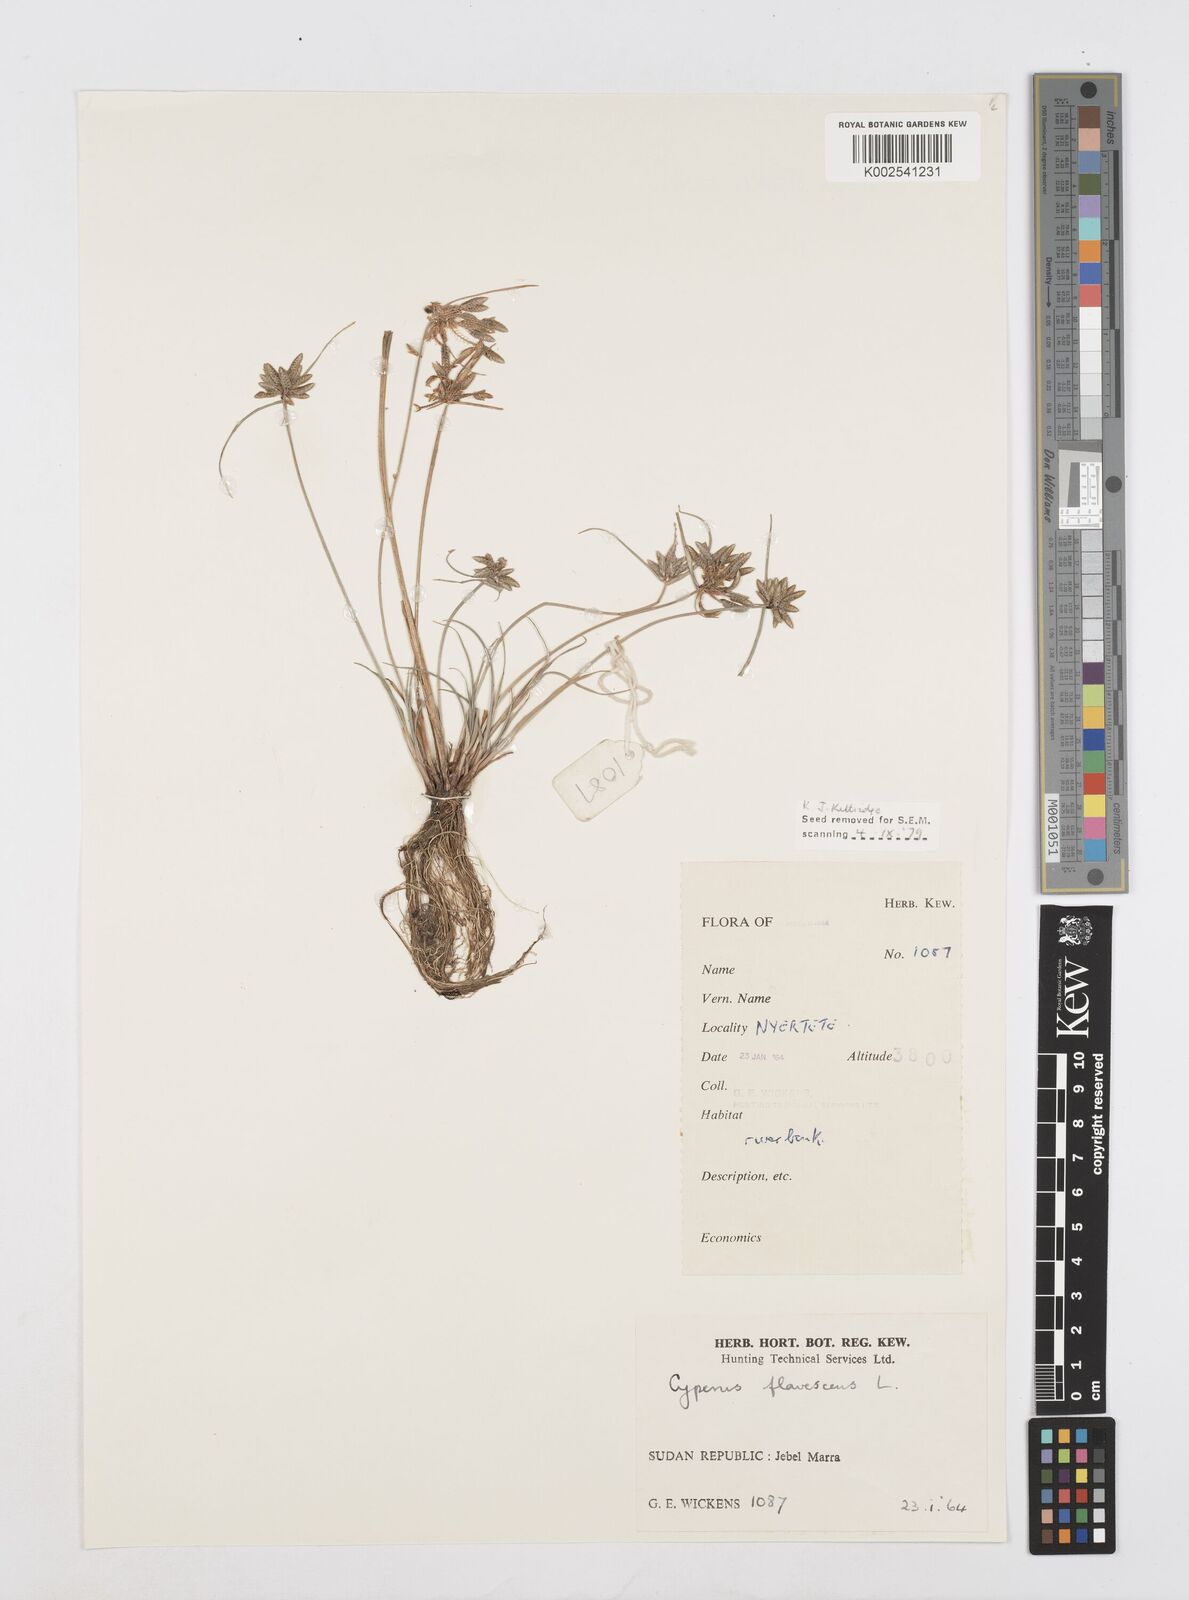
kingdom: Plantae
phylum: Tracheophyta
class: Liliopsida
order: Poales
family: Cyperaceae
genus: Cyperus
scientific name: Cyperus flavescens
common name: Yellow galingale
